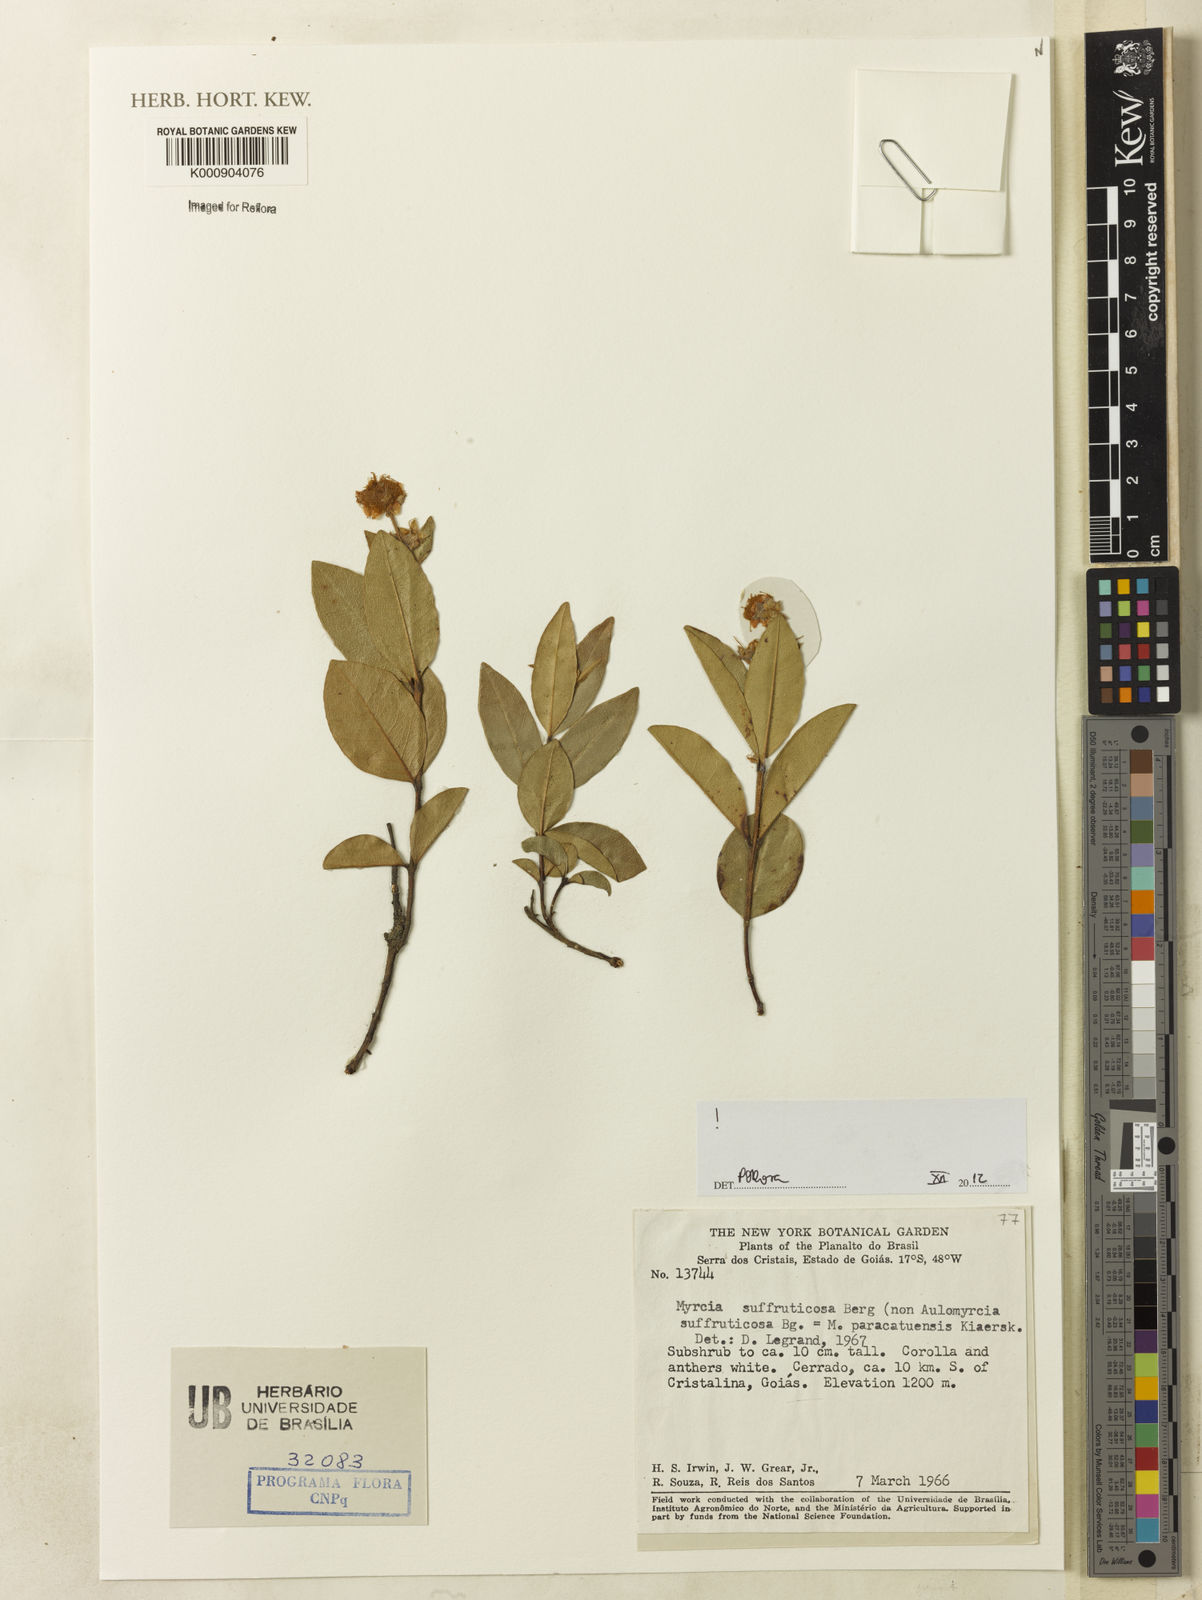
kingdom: Plantae
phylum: Tracheophyta
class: Magnoliopsida
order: Myrtales
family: Myrtaceae
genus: Myrcia
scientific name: Myrcia suffruticosa
